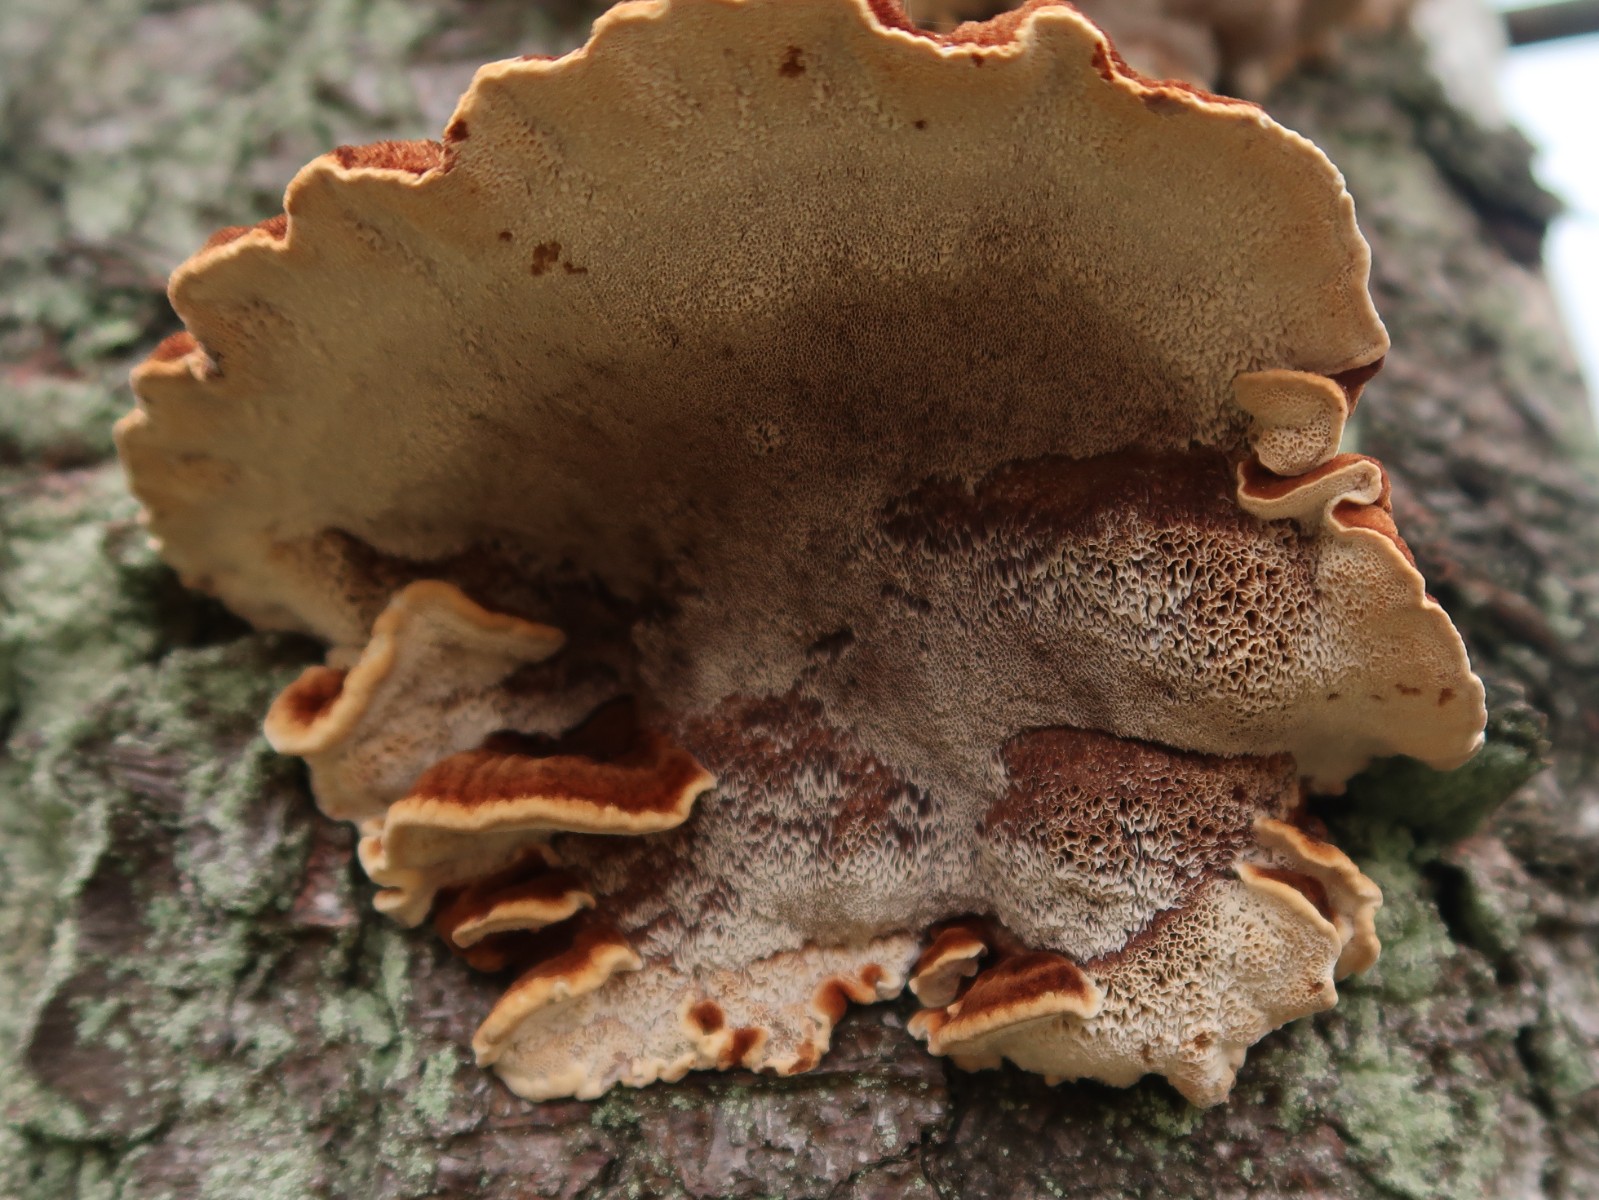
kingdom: Fungi
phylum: Basidiomycota
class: Agaricomycetes
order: Polyporales
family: Ischnodermataceae
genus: Ischnoderma
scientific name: Ischnoderma benzoinum
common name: gran-tjæreporesvamp
